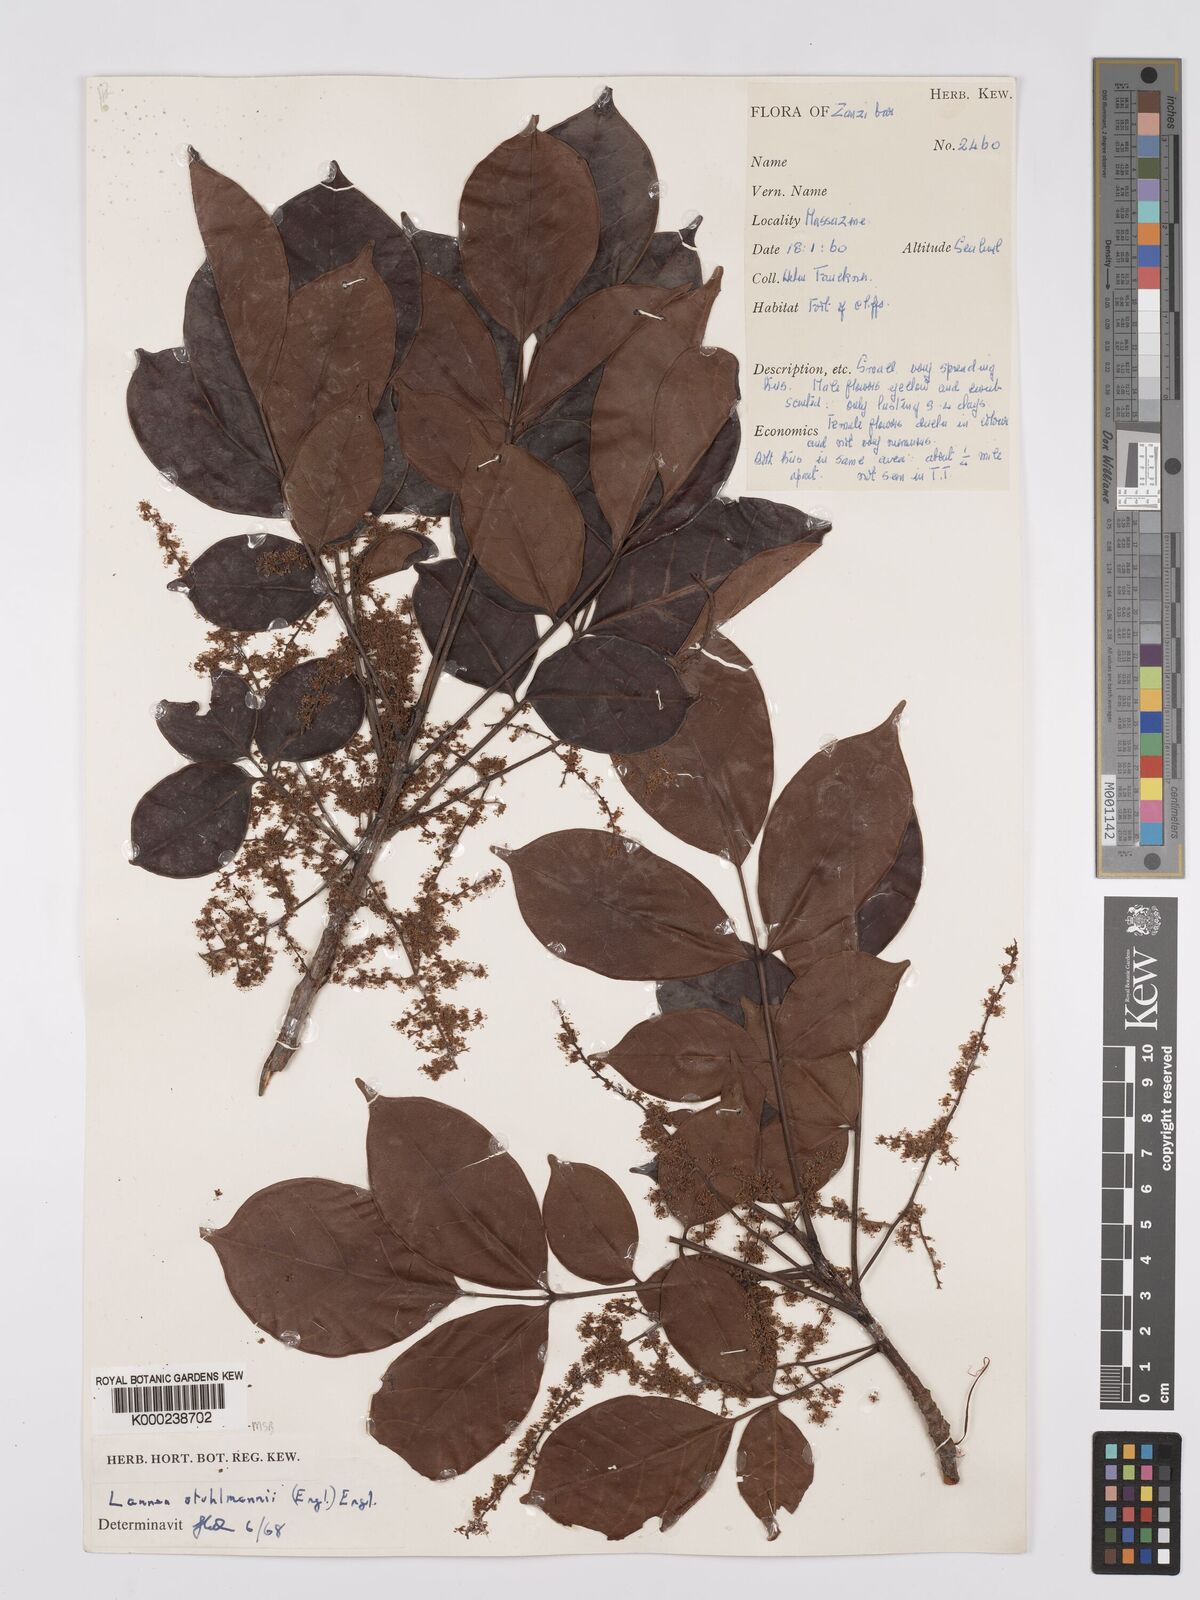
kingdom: Plantae
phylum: Tracheophyta
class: Magnoliopsida
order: Sapindales
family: Anacardiaceae
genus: Lannea
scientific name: Lannea schweinfurthii
